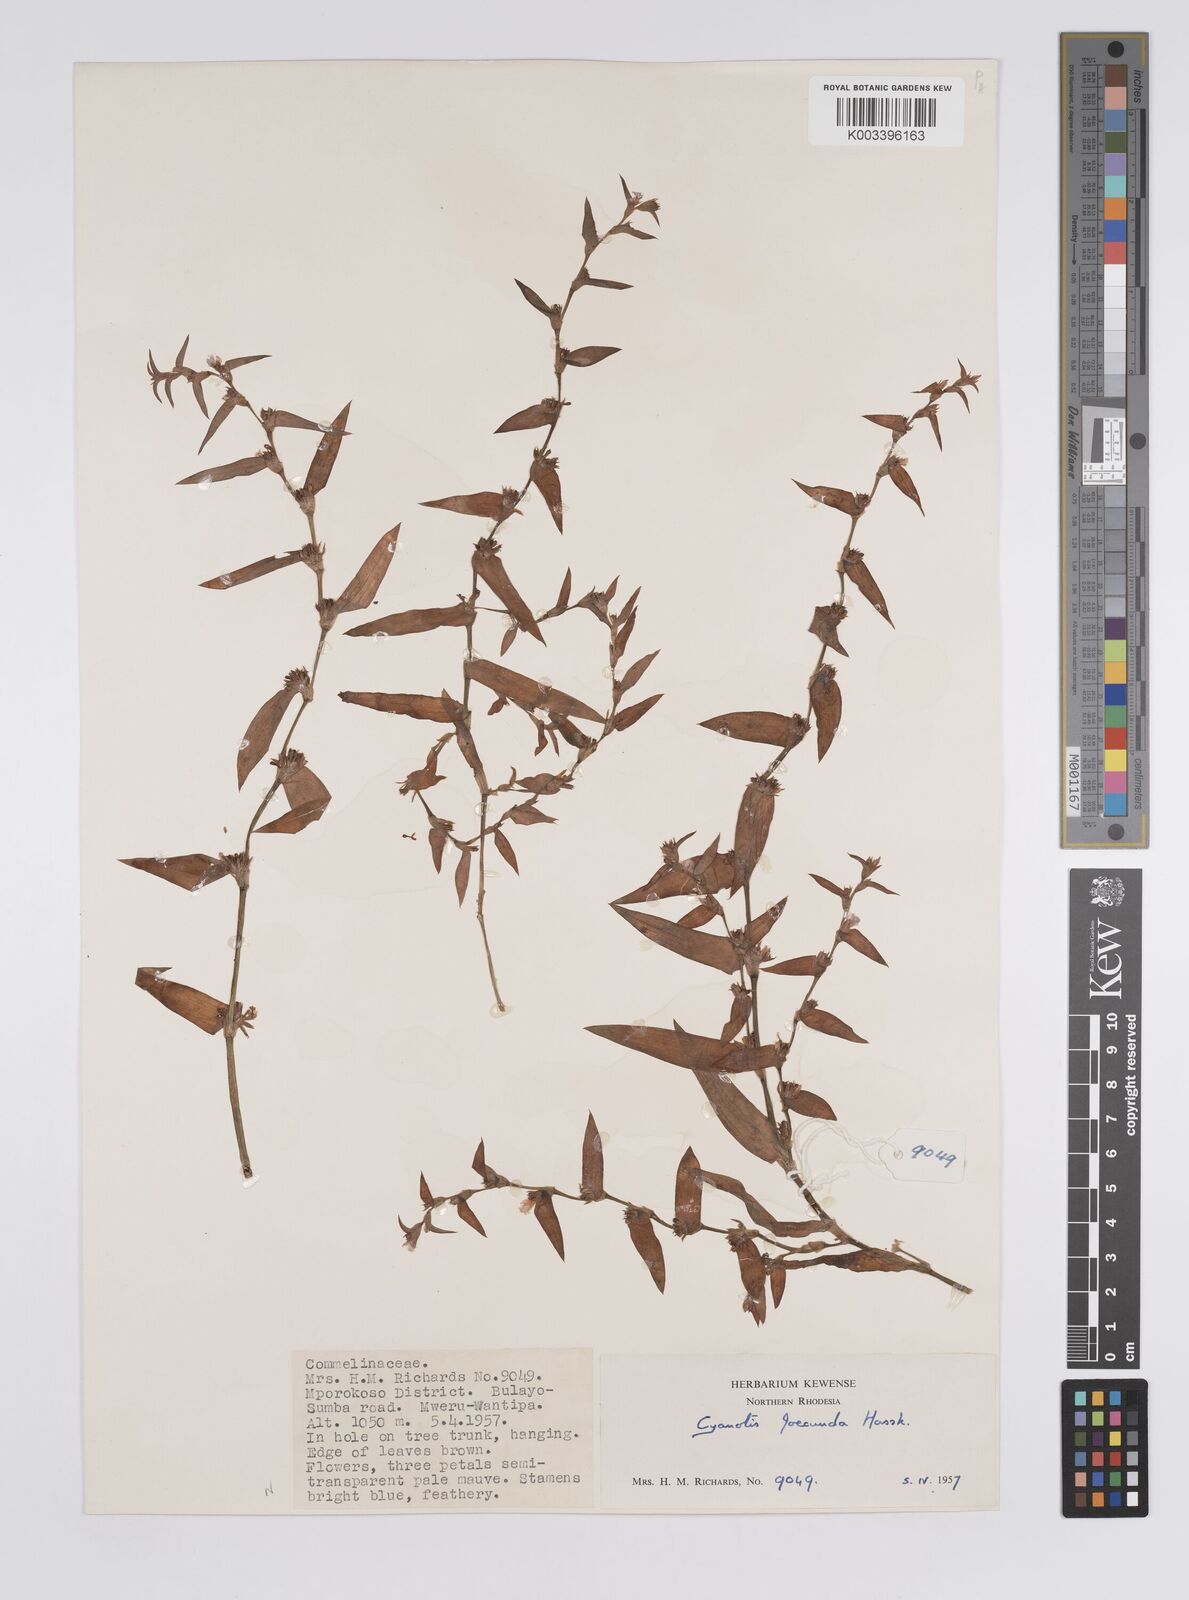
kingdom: Plantae
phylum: Tracheophyta
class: Liliopsida
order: Commelinales
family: Commelinaceae
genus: Cyanotis
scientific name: Cyanotis foecunda
